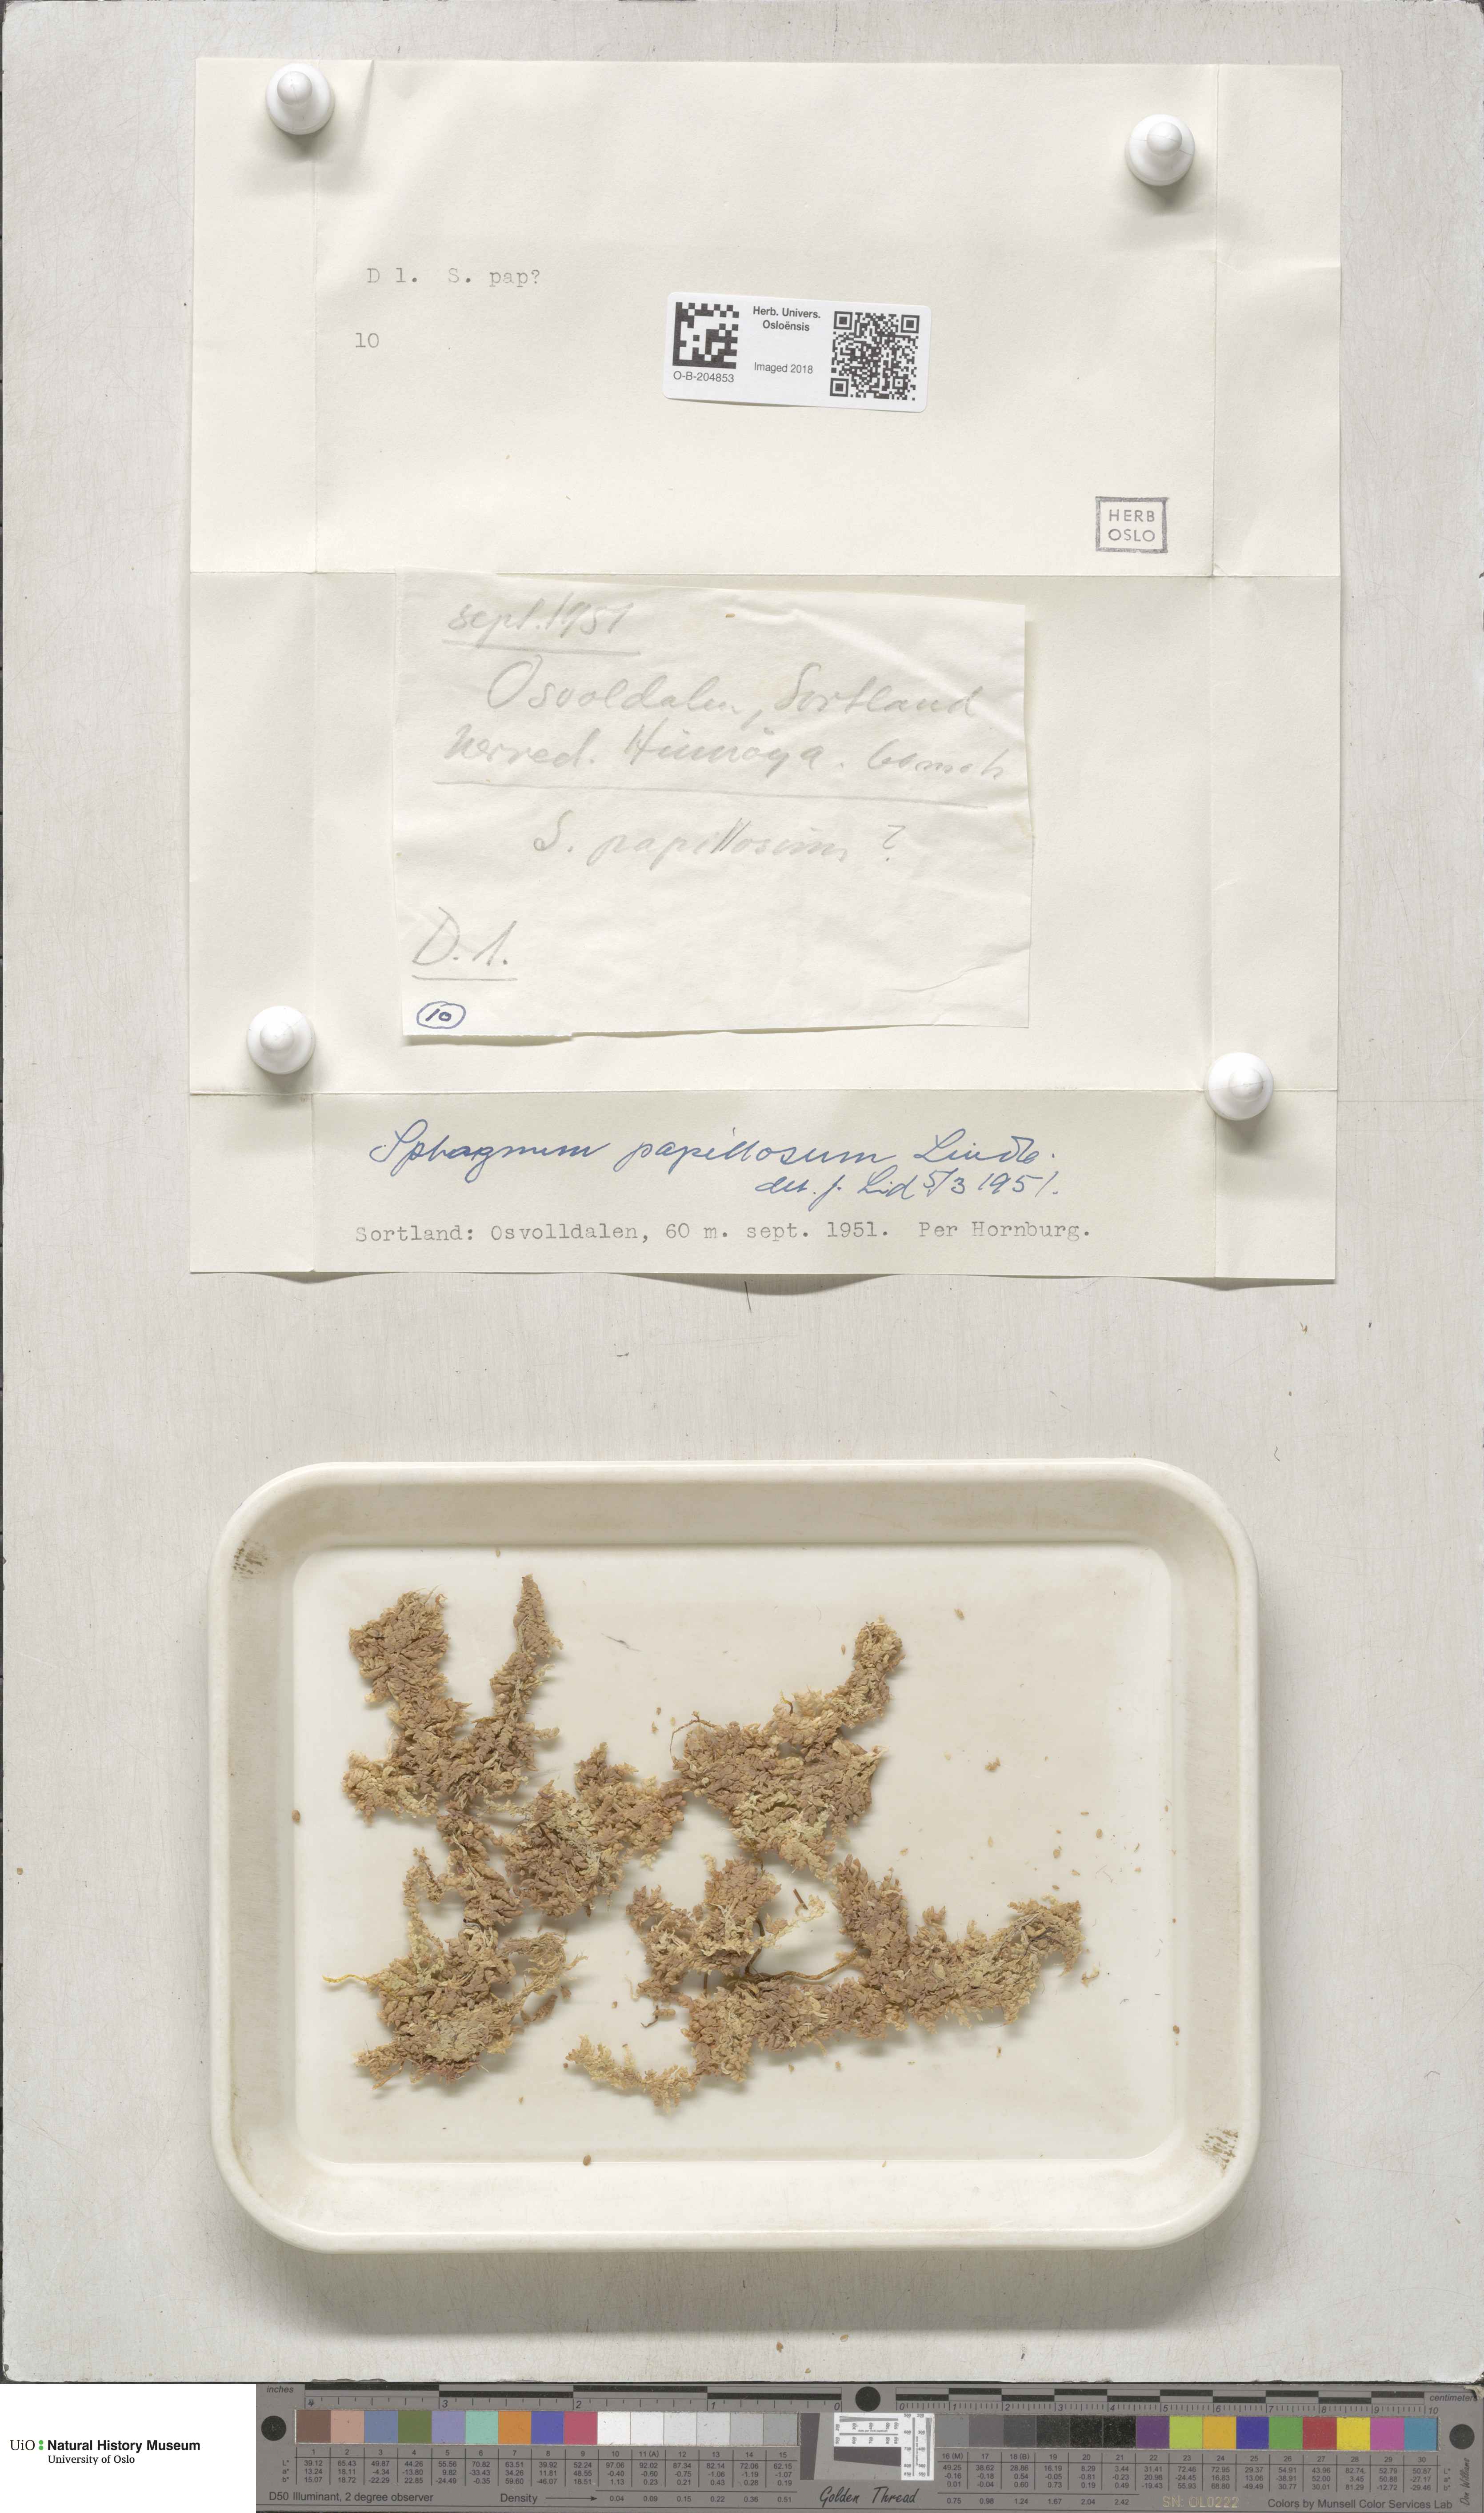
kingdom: Plantae
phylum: Bryophyta
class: Sphagnopsida
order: Sphagnales
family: Sphagnaceae
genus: Sphagnum
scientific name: Sphagnum papillosum
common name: Papillose peat moss
